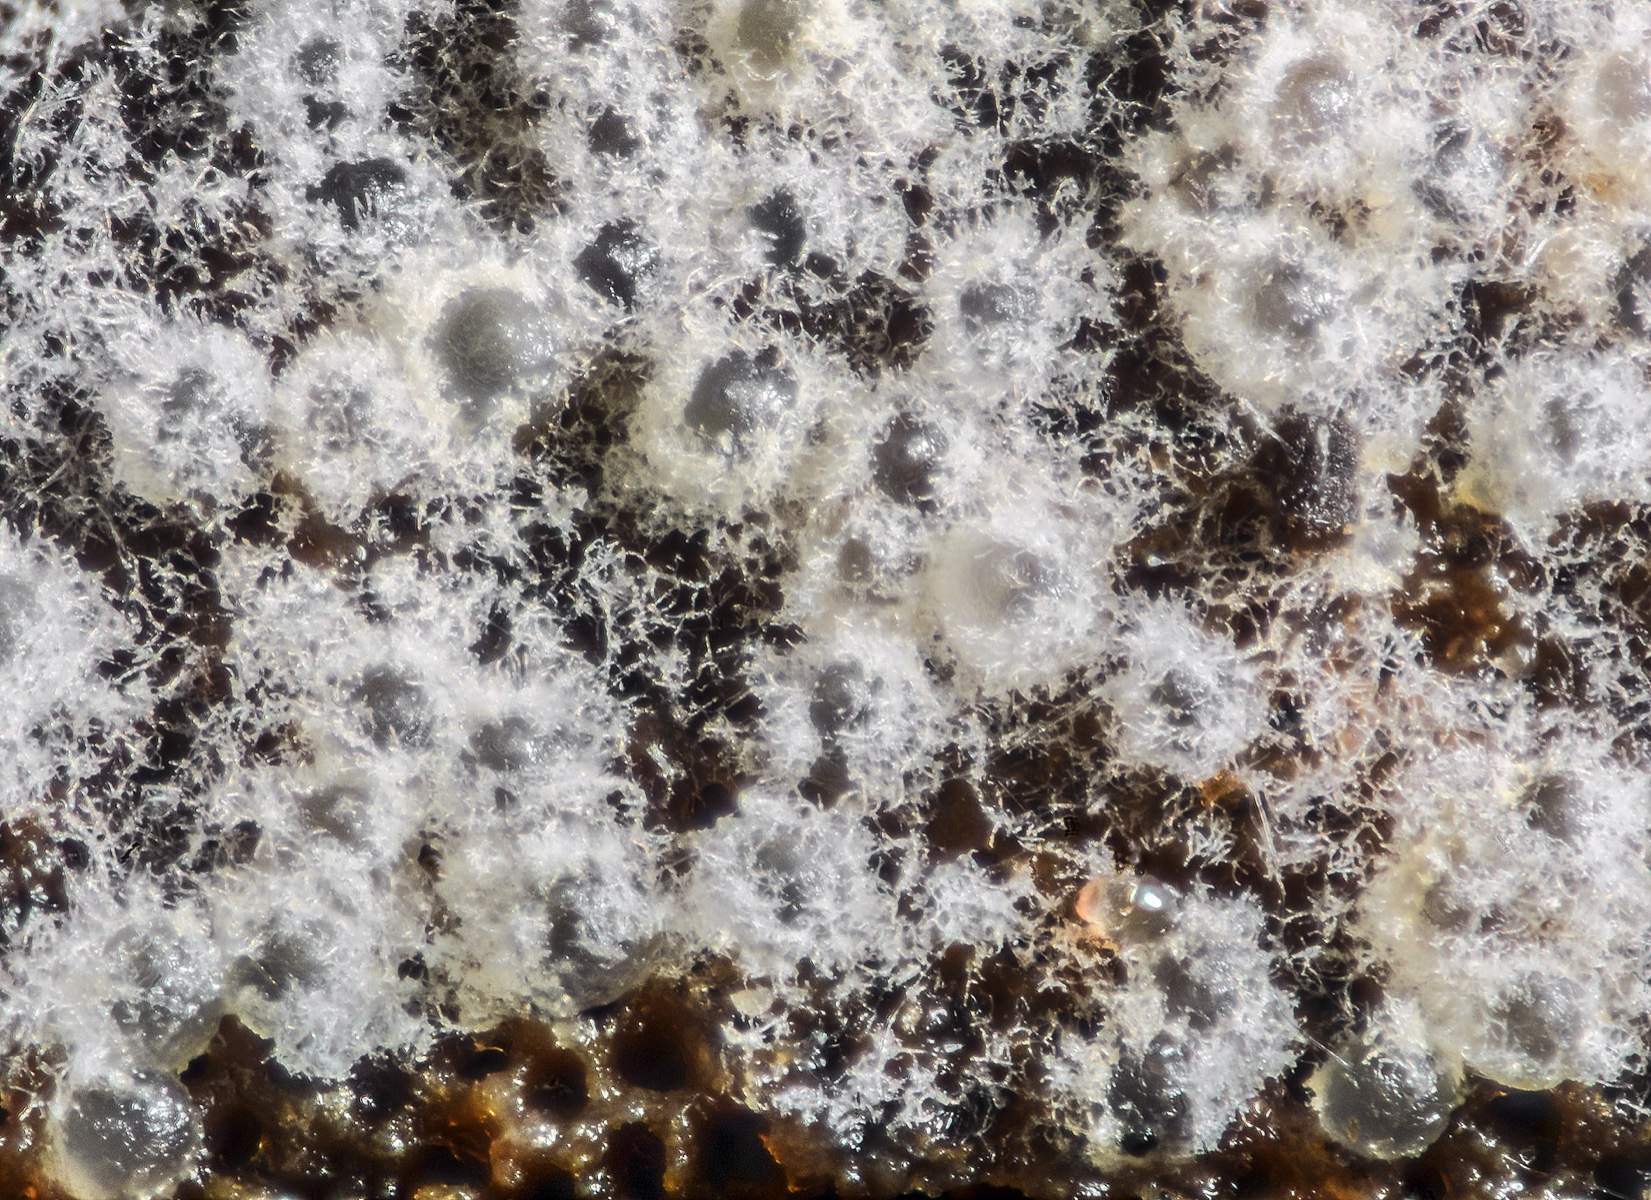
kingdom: Fungi
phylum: Ascomycota
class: Sordariomycetes
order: Hypocreales
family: Hypocreaceae
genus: Protocrea
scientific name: Protocrea farinosa
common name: krystalpore-kødkerne
